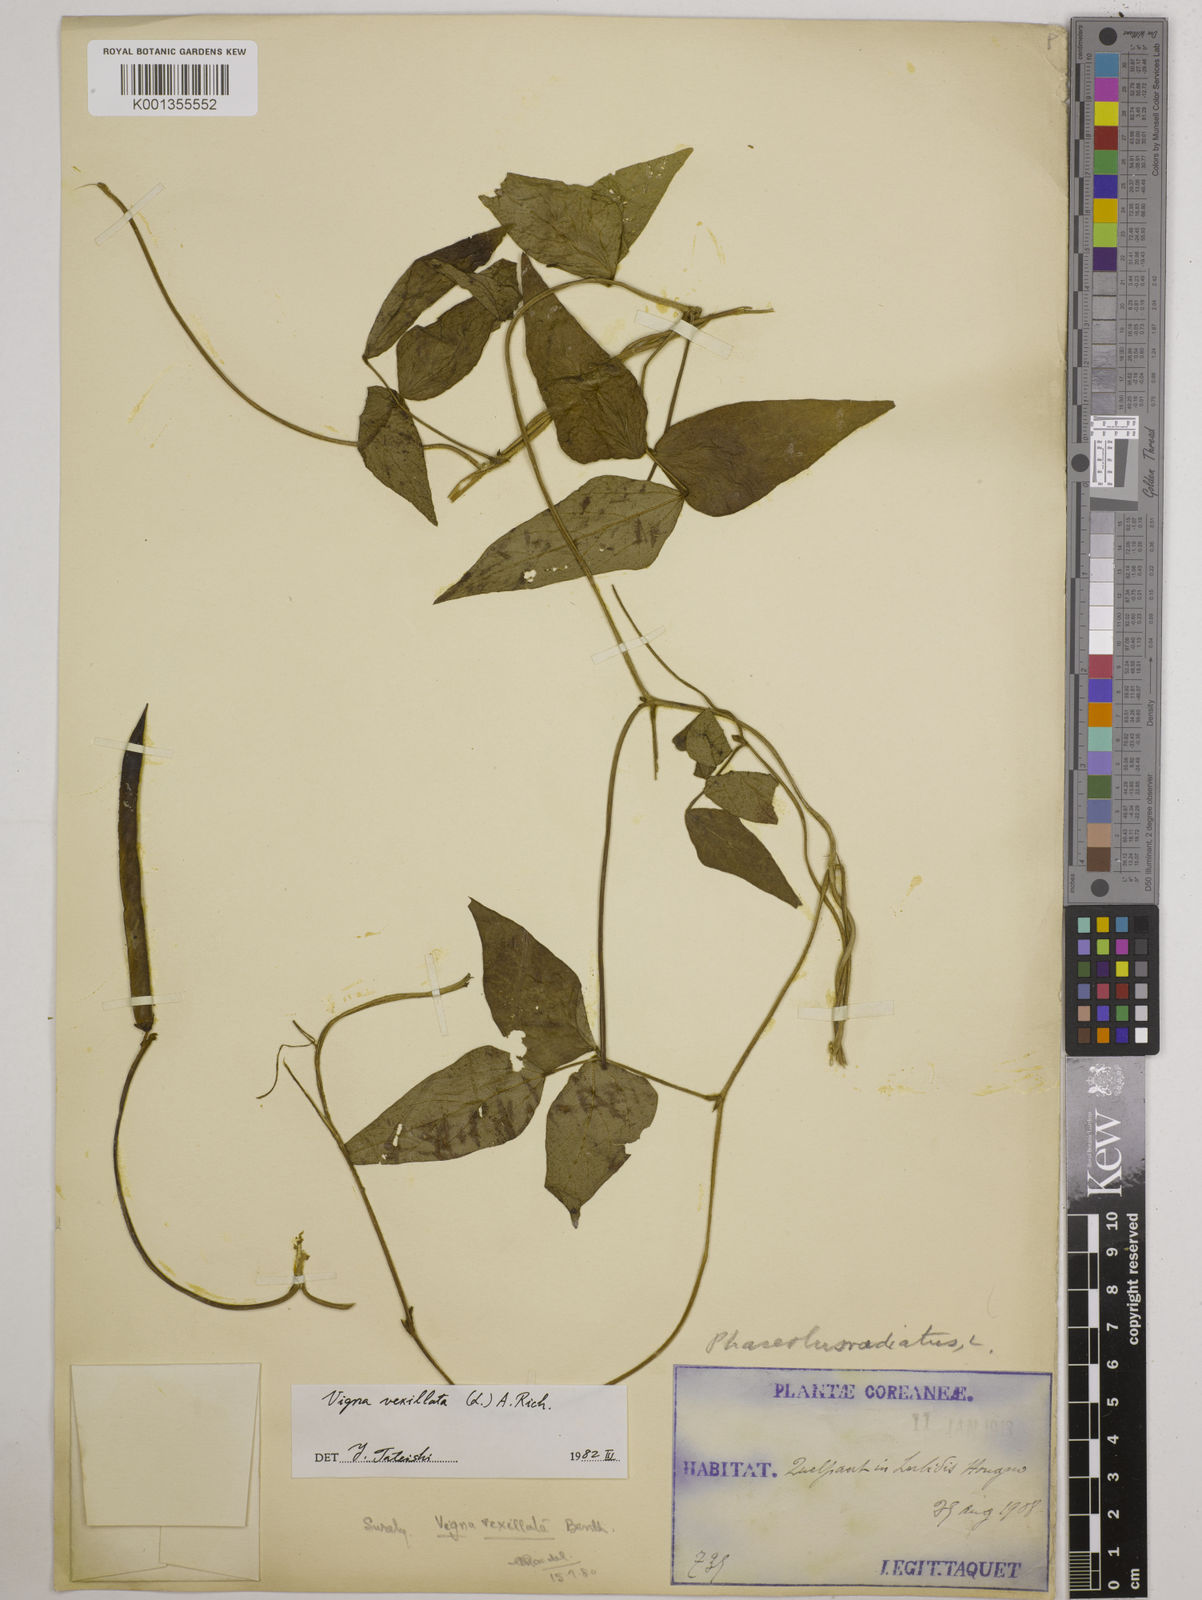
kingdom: Plantae
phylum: Tracheophyta
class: Magnoliopsida
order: Fabales
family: Fabaceae
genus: Vigna
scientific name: Vigna vexillata
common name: Zombi pea
